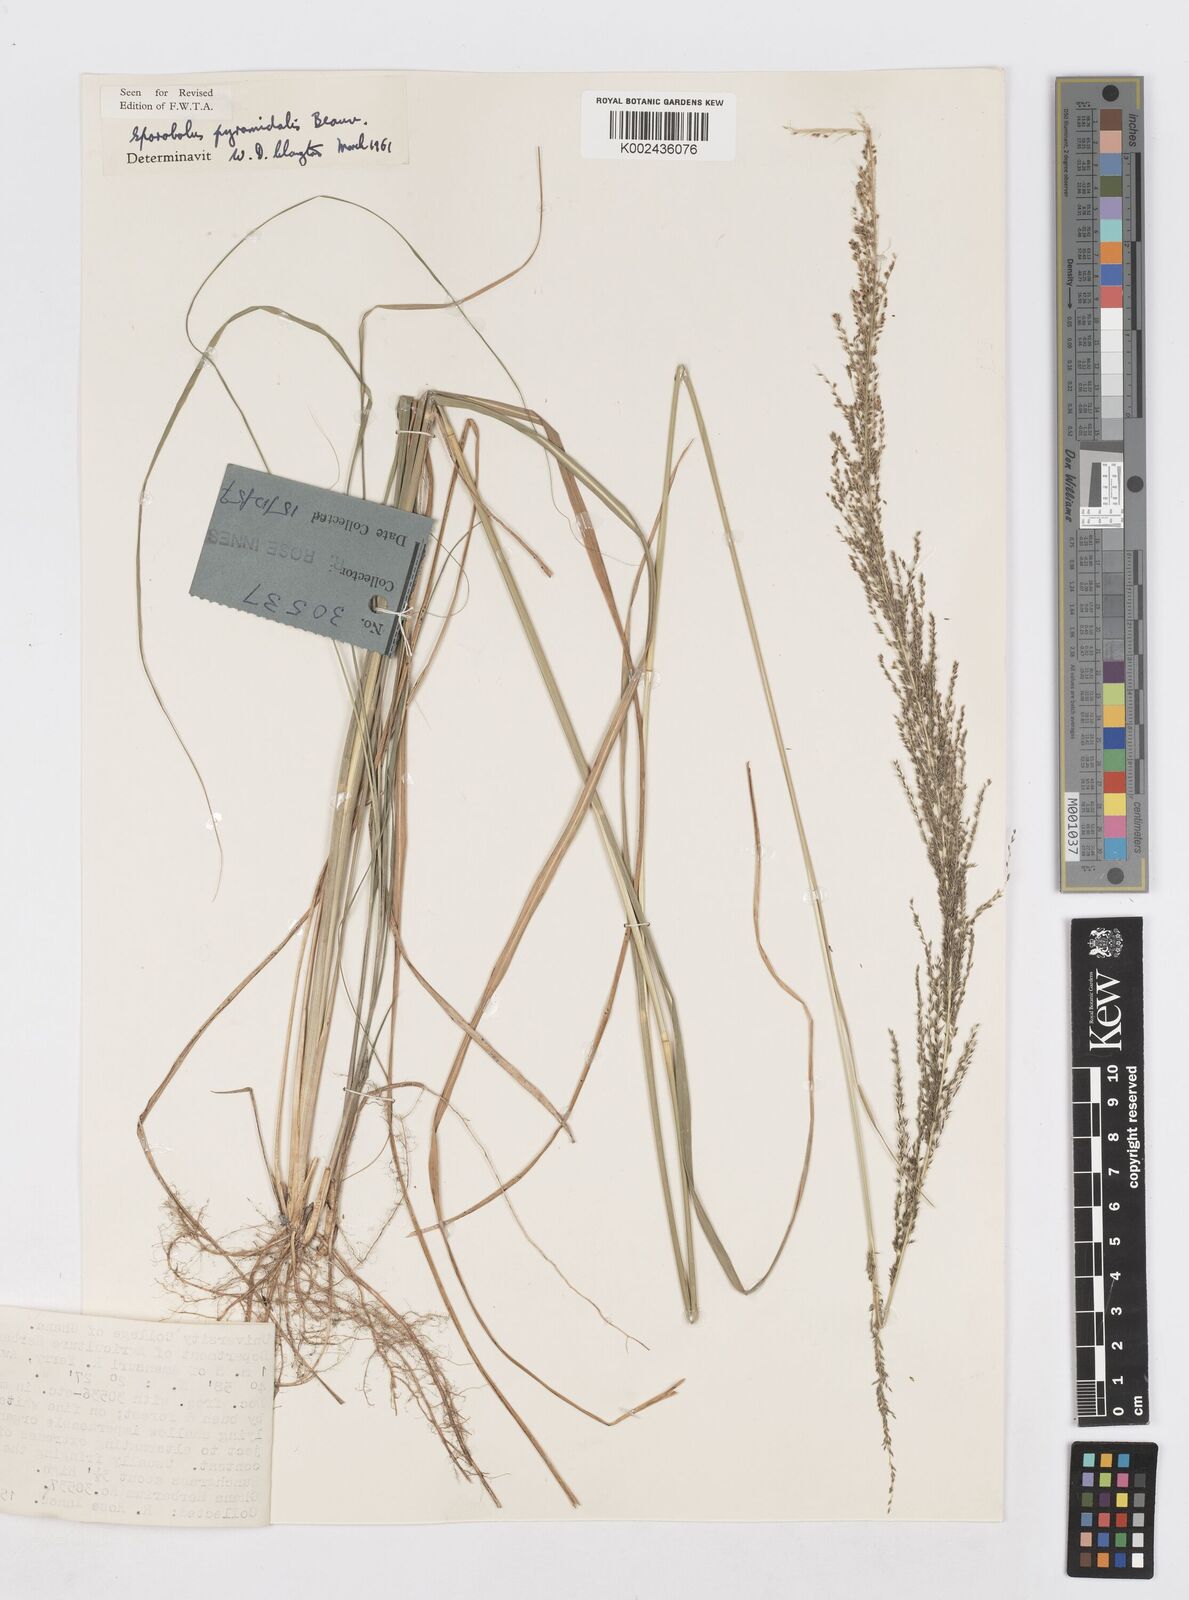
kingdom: Plantae
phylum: Tracheophyta
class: Liliopsida
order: Poales
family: Poaceae
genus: Sporobolus
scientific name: Sporobolus pyramidalis
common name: West indian dropseed
